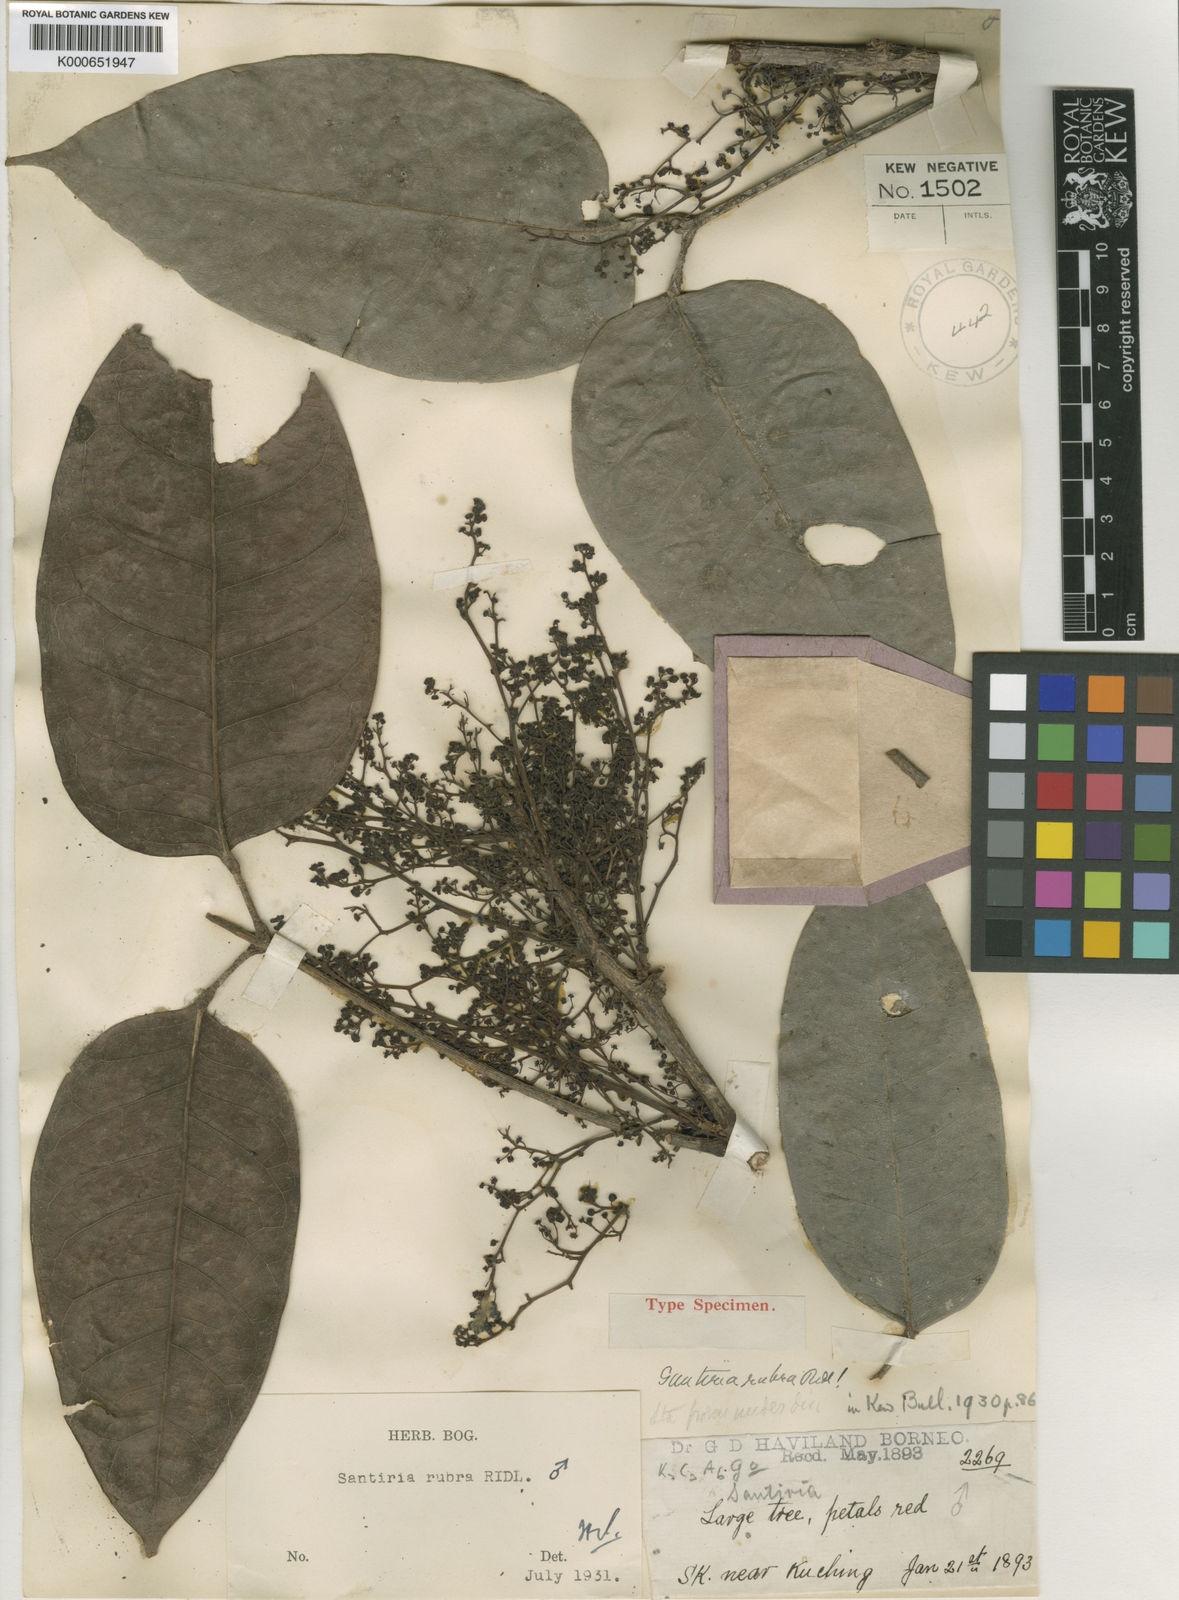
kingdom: Plantae
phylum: Tracheophyta
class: Magnoliopsida
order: Sapindales
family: Burseraceae
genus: Santiria
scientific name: Santiria apiculata
